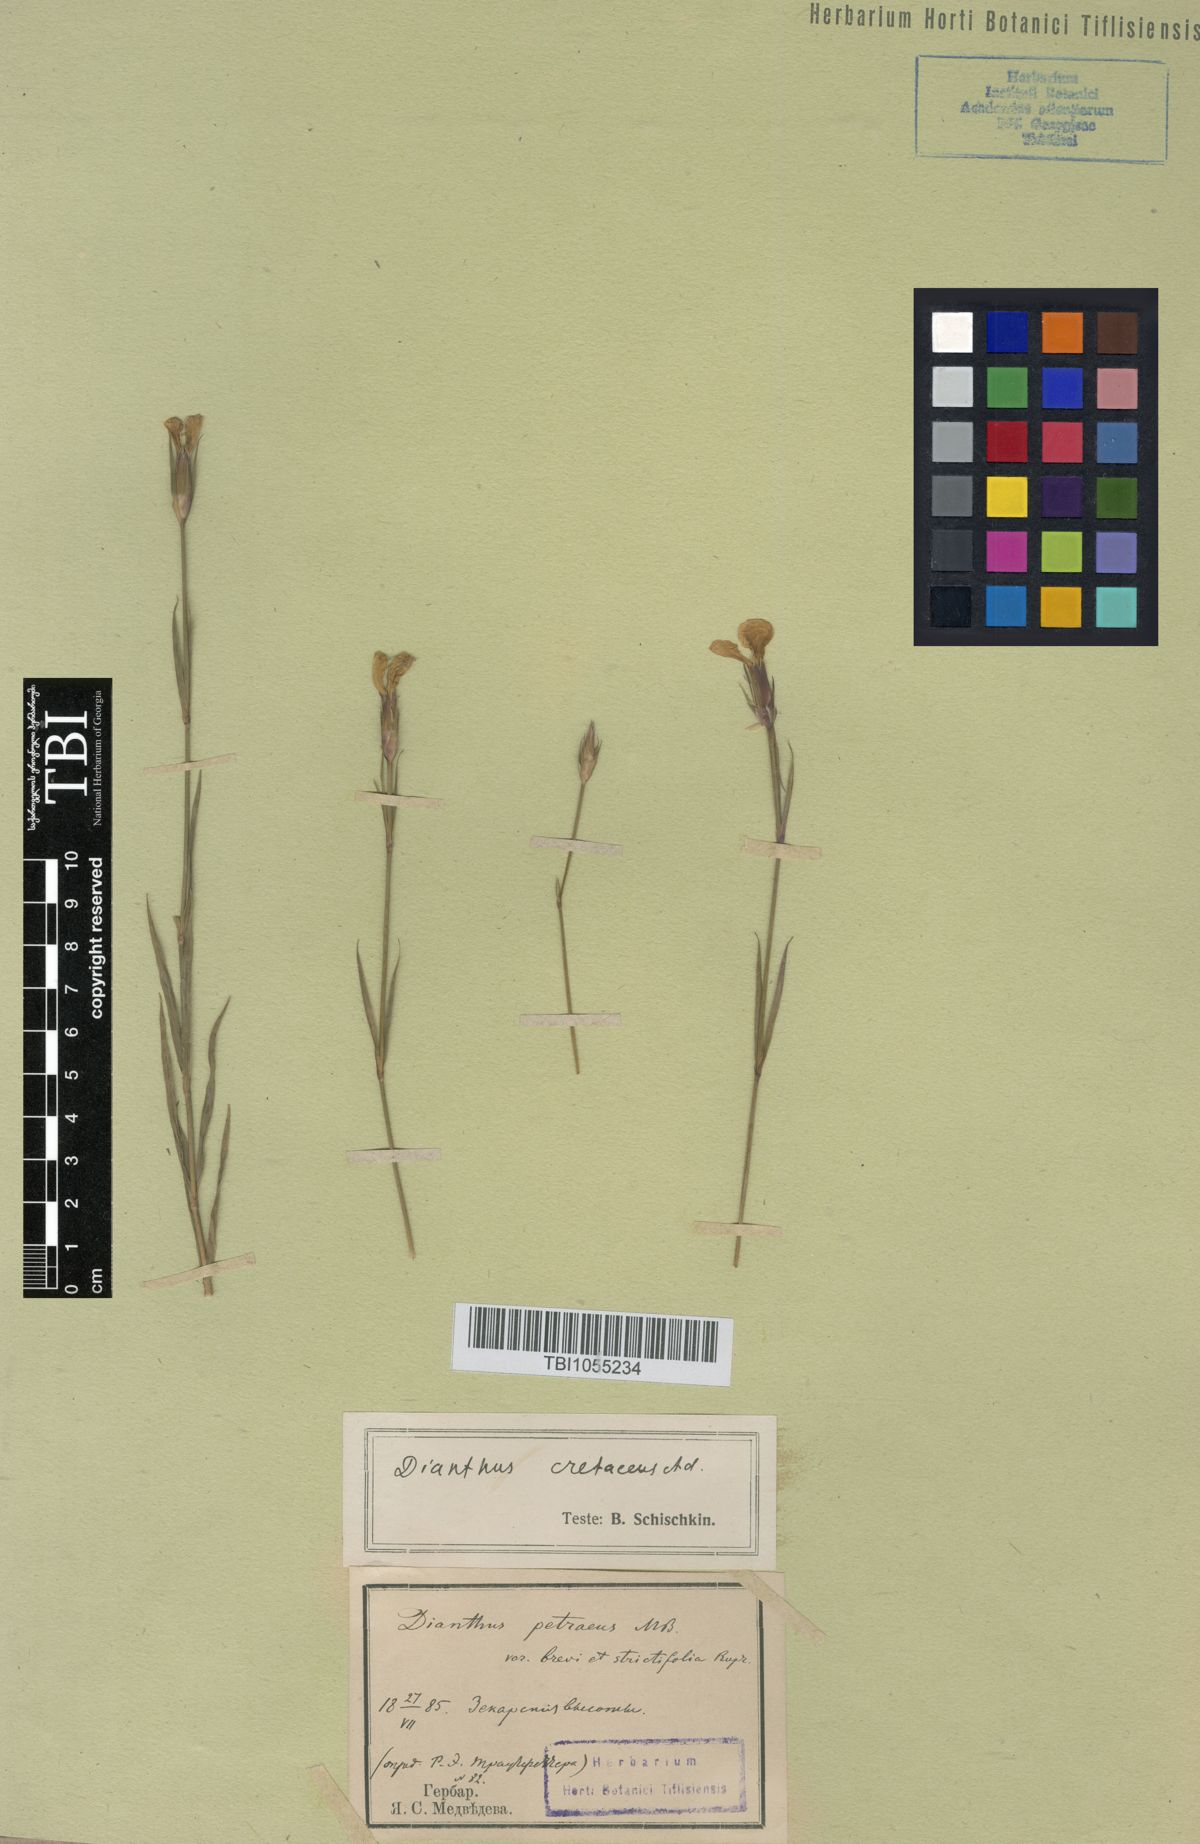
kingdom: Plantae
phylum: Tracheophyta
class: Magnoliopsida
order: Caryophyllales
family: Caryophyllaceae
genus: Dianthus
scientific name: Dianthus cretaceus
